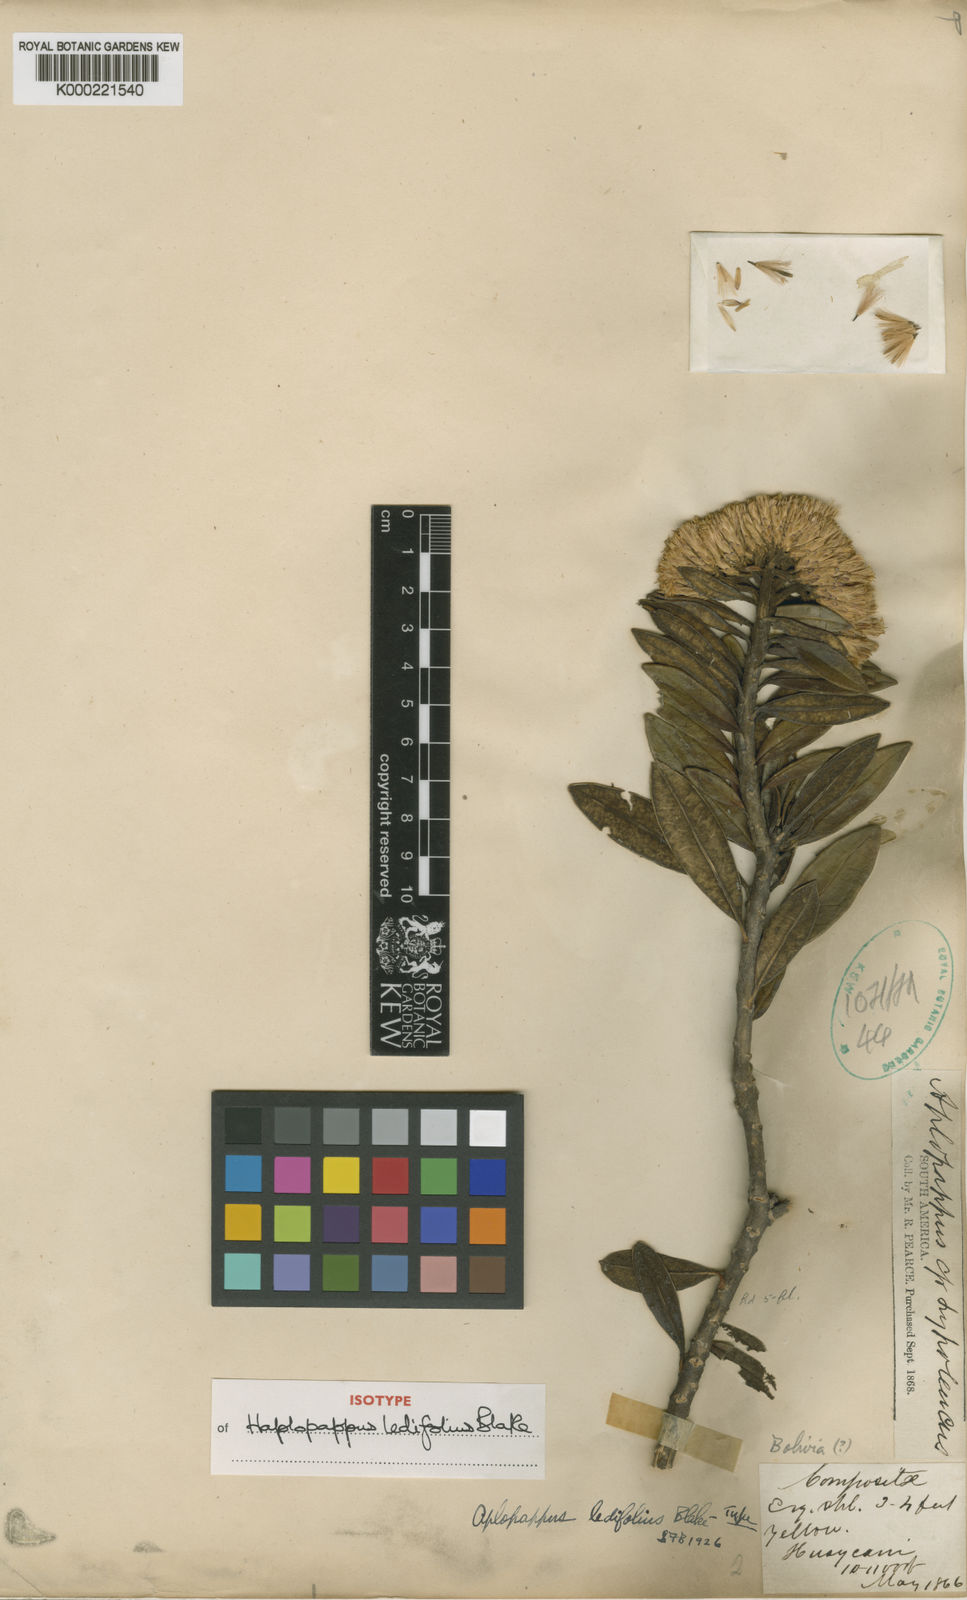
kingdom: Plantae
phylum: Tracheophyta
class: Magnoliopsida
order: Asterales
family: Asteraceae
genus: Llerasia
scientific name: Llerasia ledifolia
